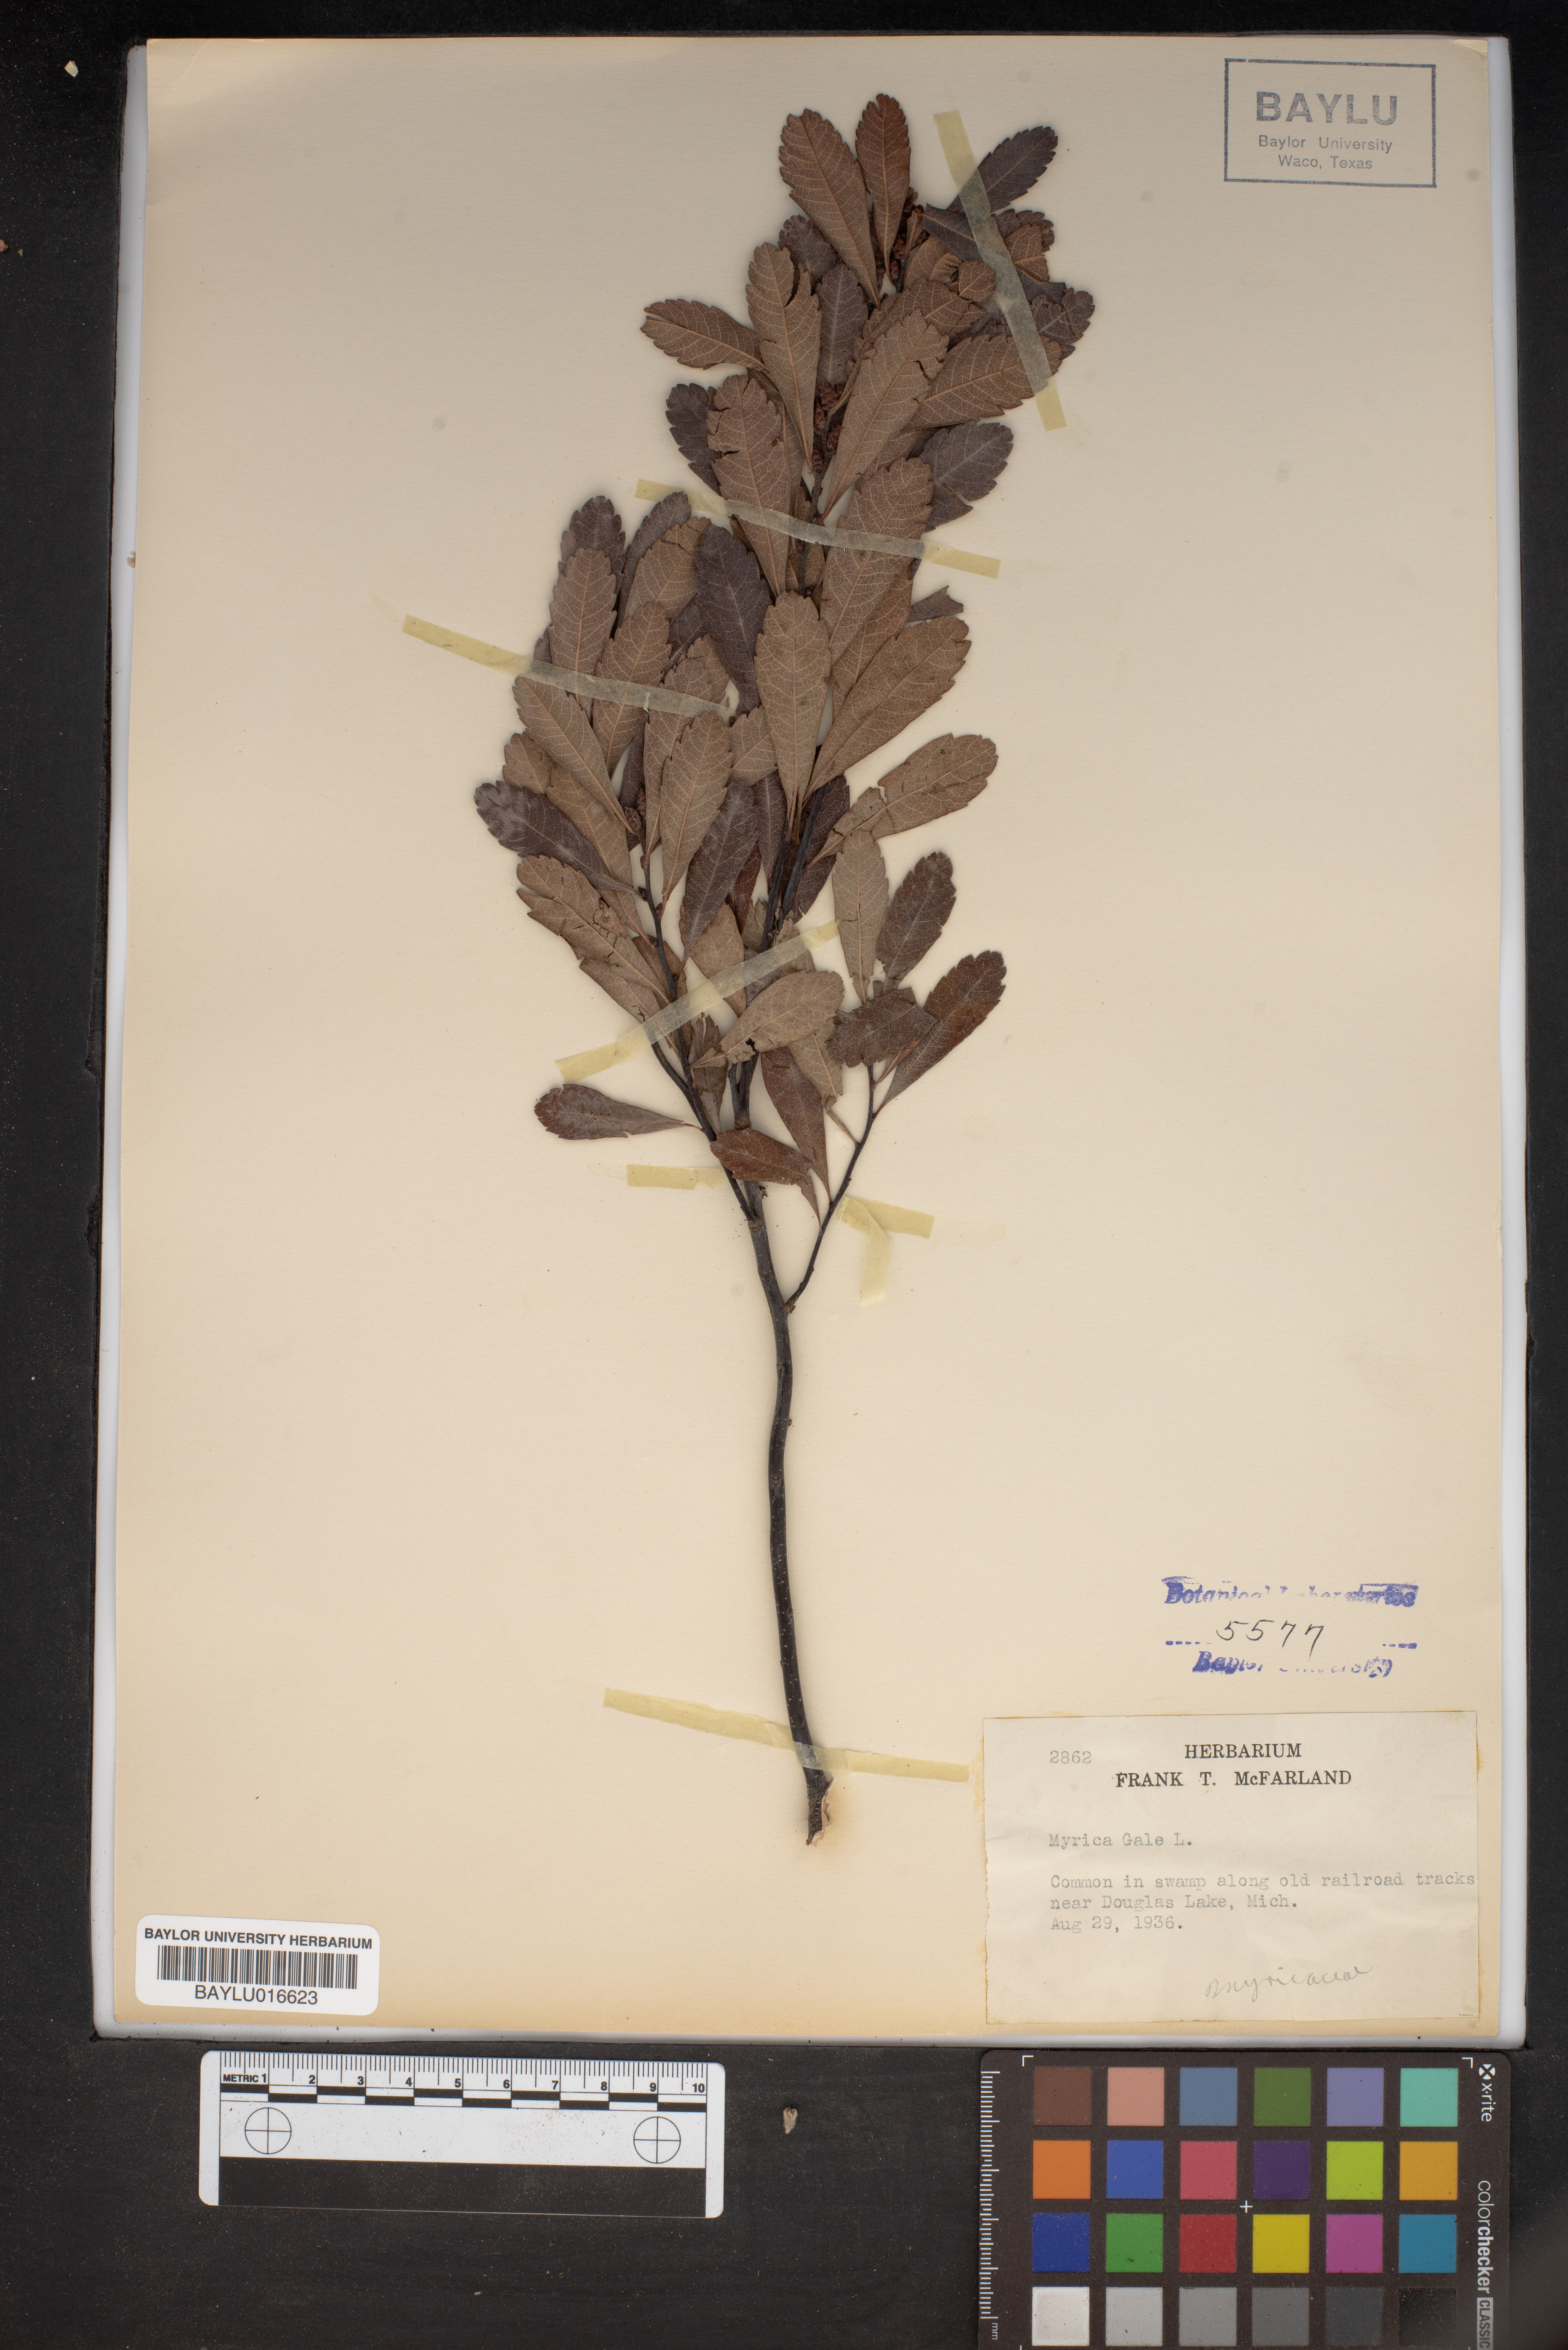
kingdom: Plantae
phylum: Tracheophyta
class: Magnoliopsida
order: Fagales
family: Myricaceae
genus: Myrica
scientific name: Myrica gale
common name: Sweet gale
